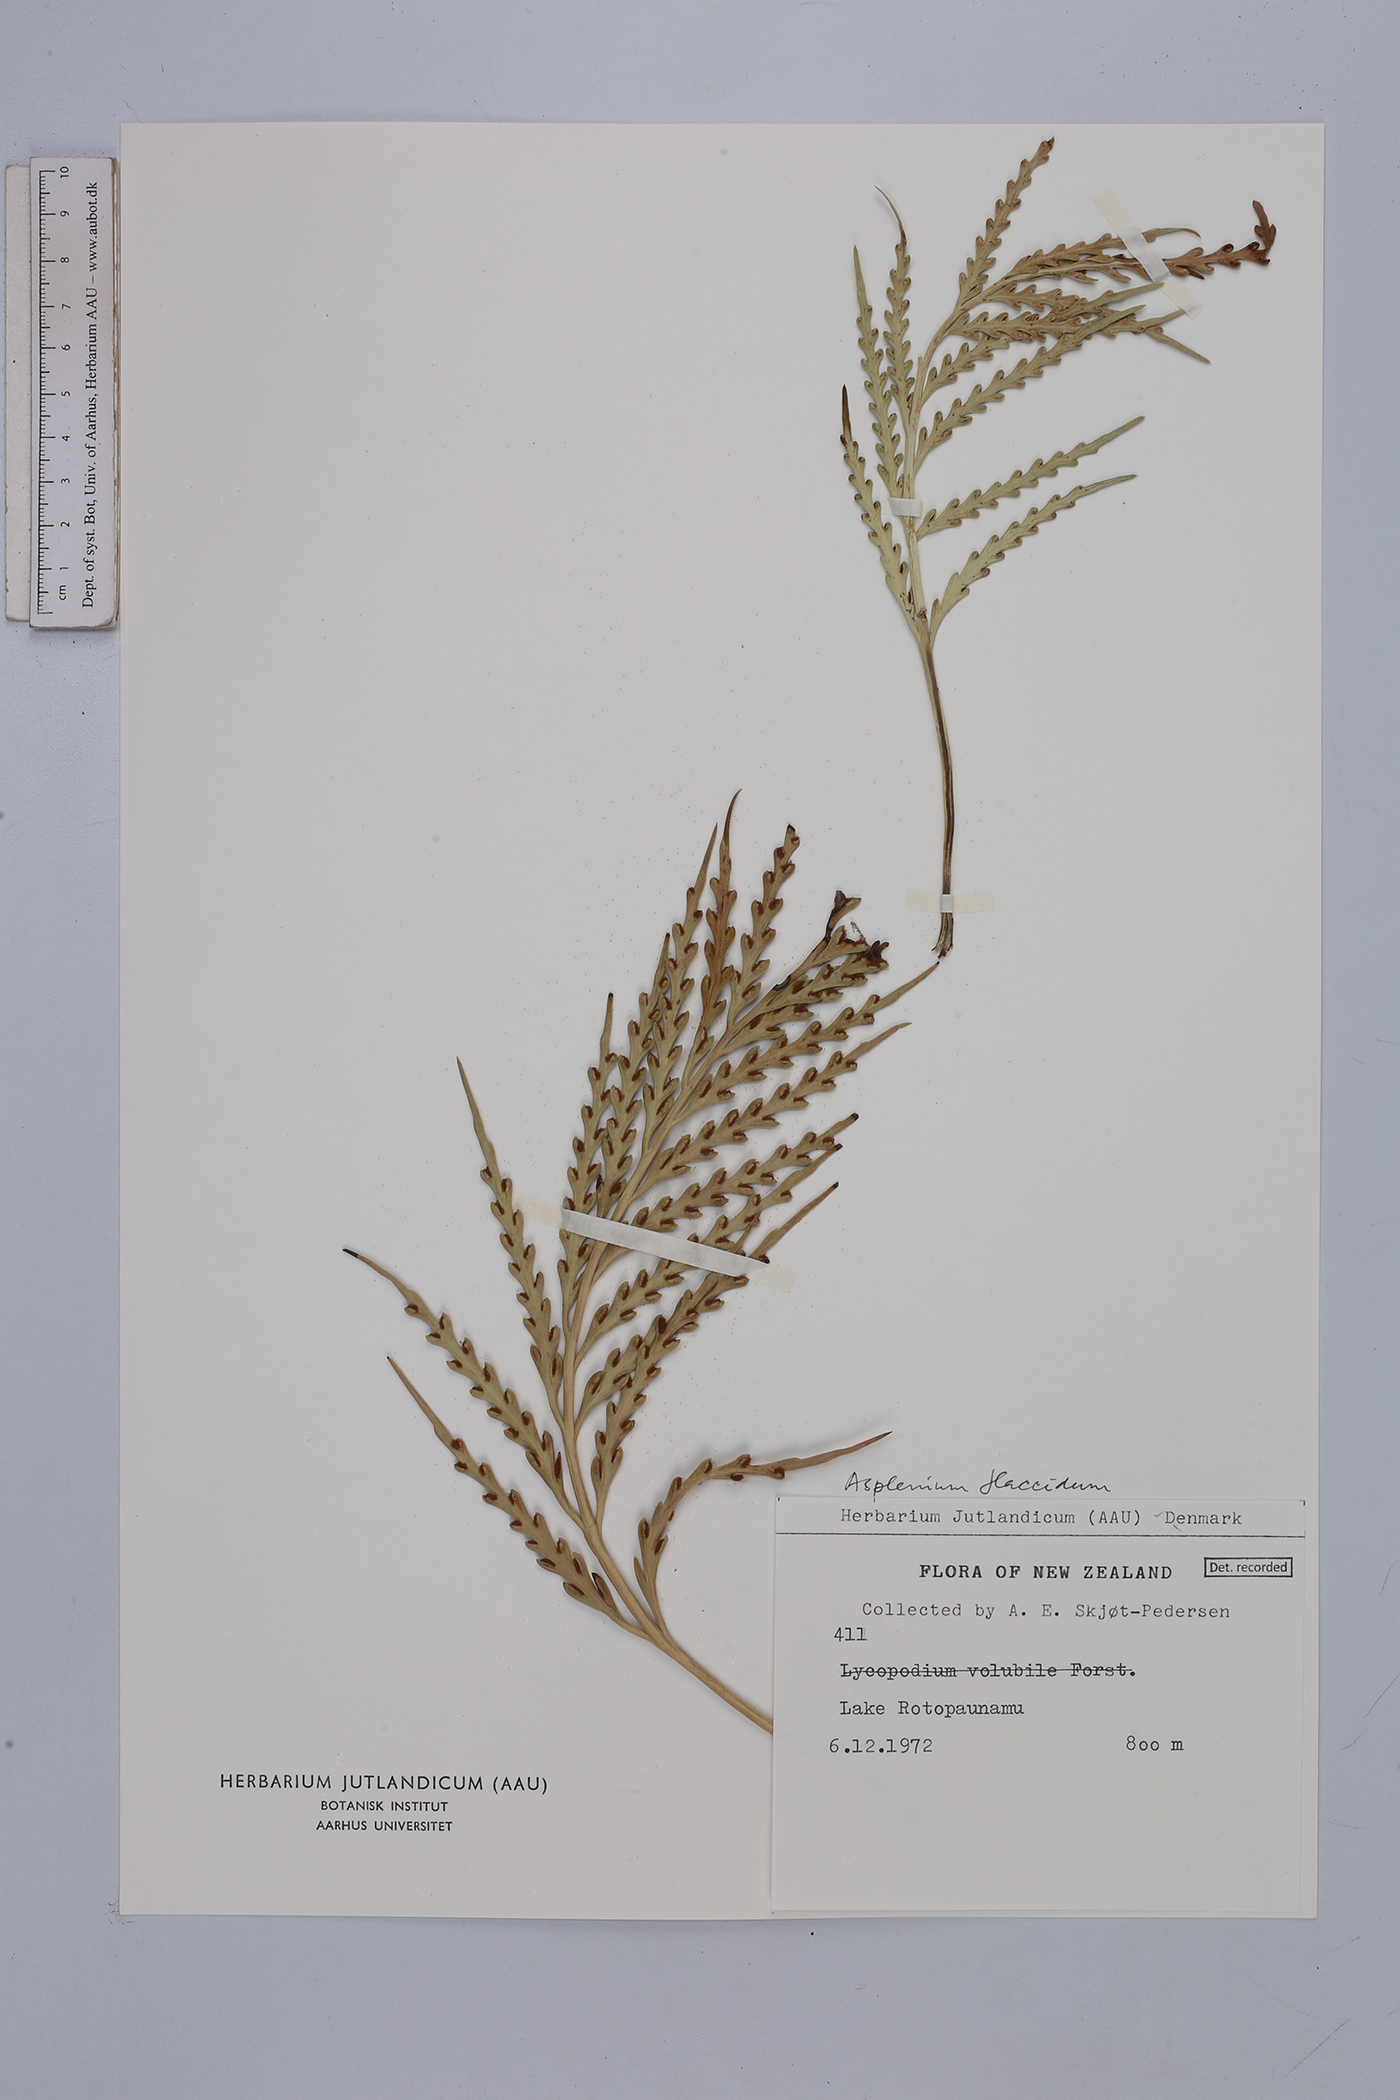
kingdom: Plantae
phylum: Tracheophyta
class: Polypodiopsida
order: Polypodiales
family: Aspleniaceae
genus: Asplenium
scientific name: Asplenium flaccidum
